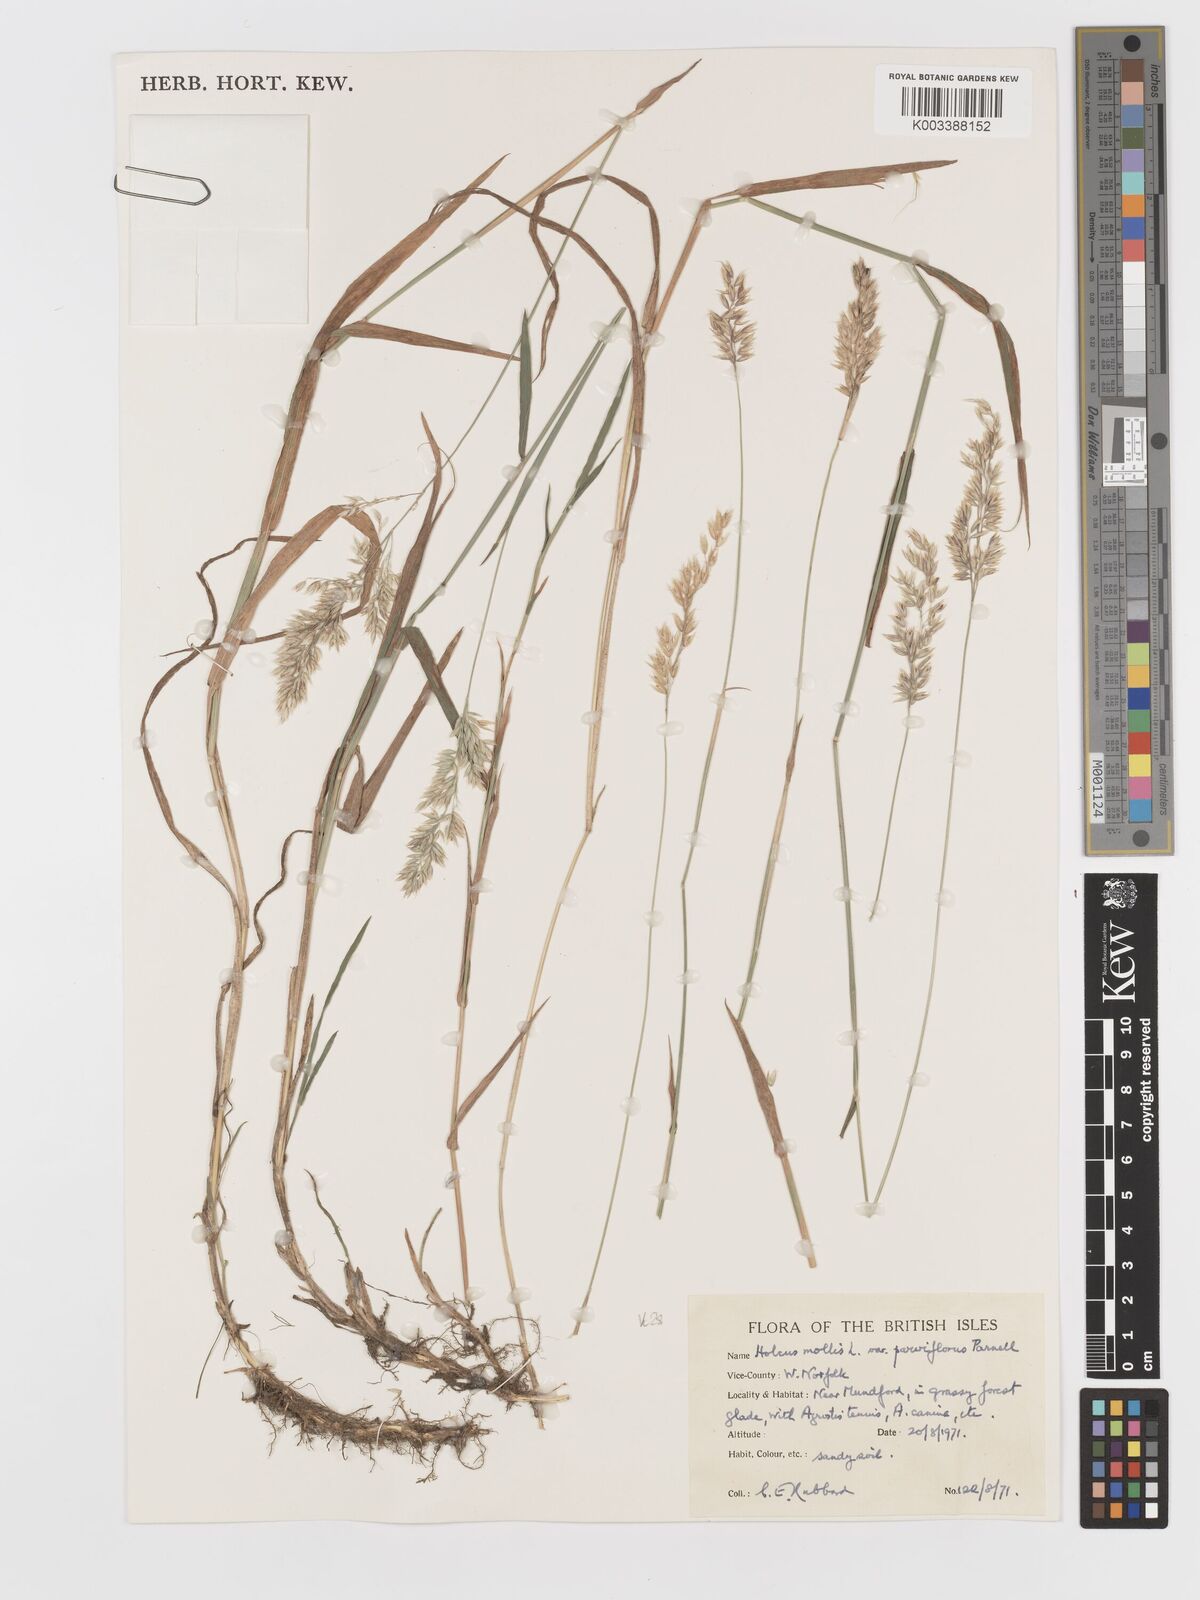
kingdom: Plantae
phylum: Tracheophyta
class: Liliopsida
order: Poales
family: Poaceae
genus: Holcus
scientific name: Holcus mollis
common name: Creeping velvetgrass
